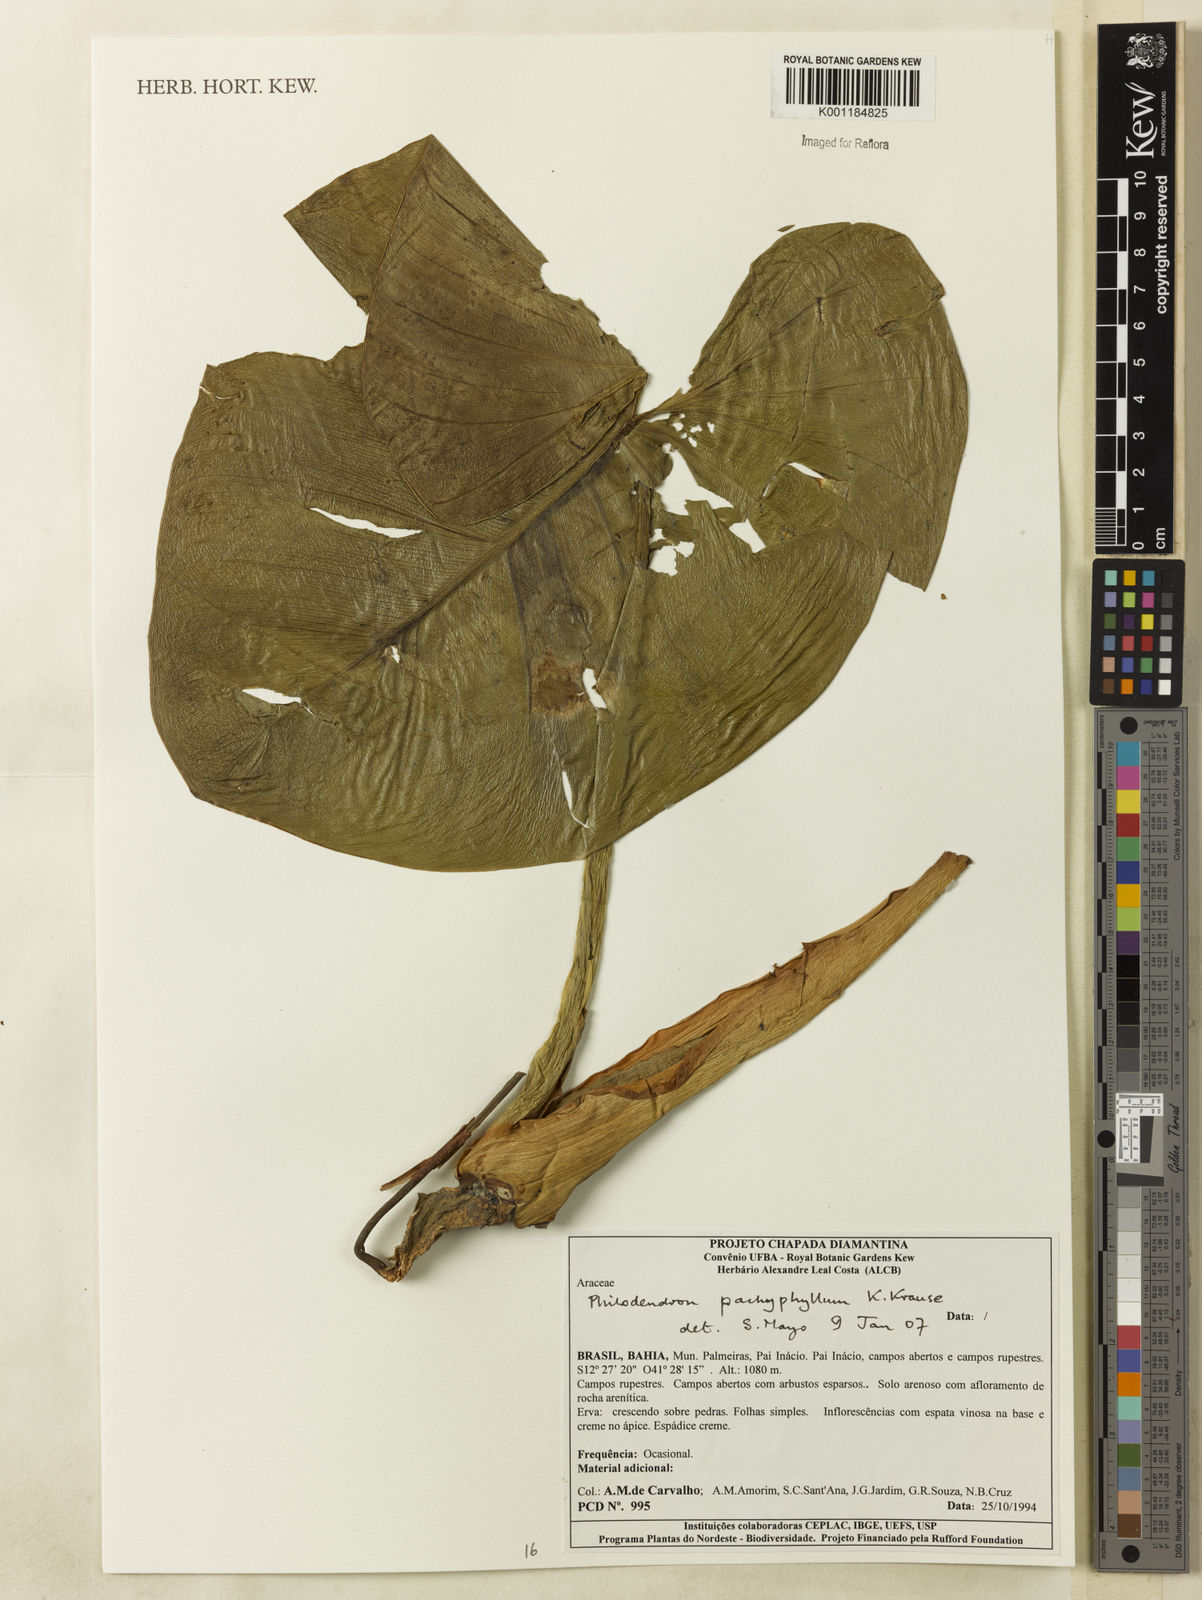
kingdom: Plantae
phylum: Tracheophyta
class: Liliopsida
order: Alismatales
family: Araceae
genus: Philodendron
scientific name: Philodendron pachyphyllum
